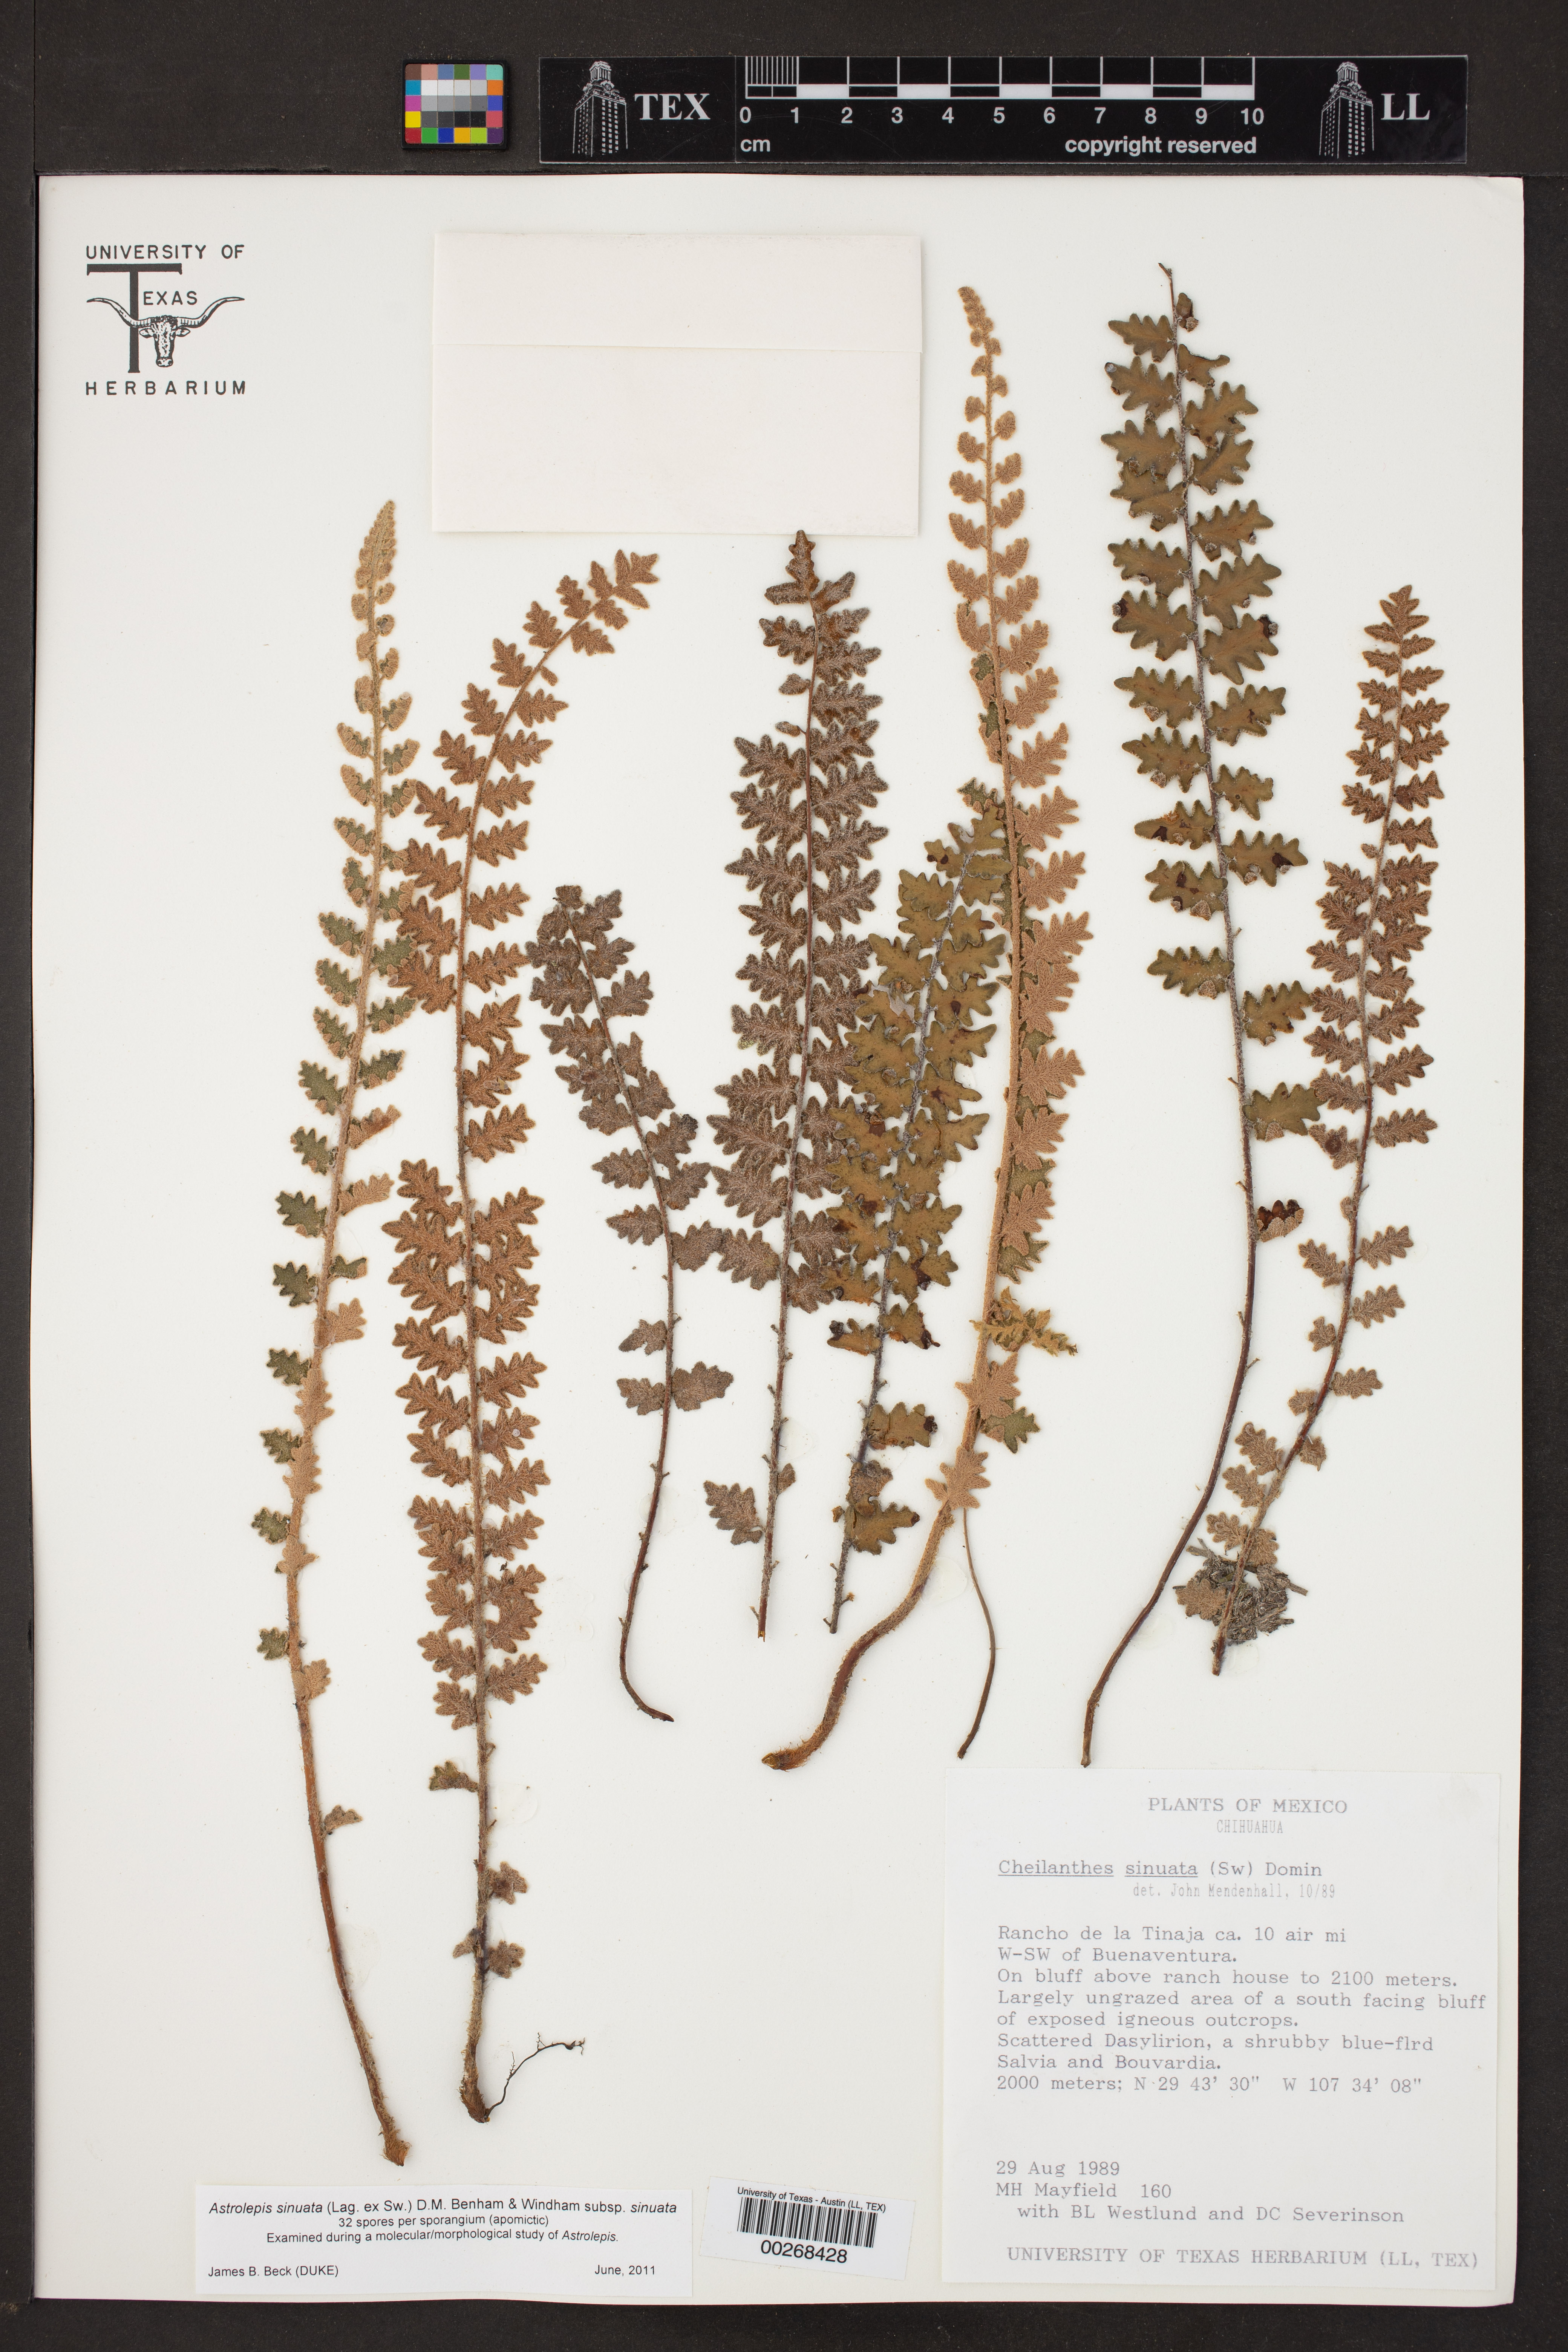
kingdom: Plantae
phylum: Tracheophyta
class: Polypodiopsida
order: Polypodiales
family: Pteridaceae
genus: Astrolepis
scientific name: Astrolepis sinuata
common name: Wavy scaly cloakfern
